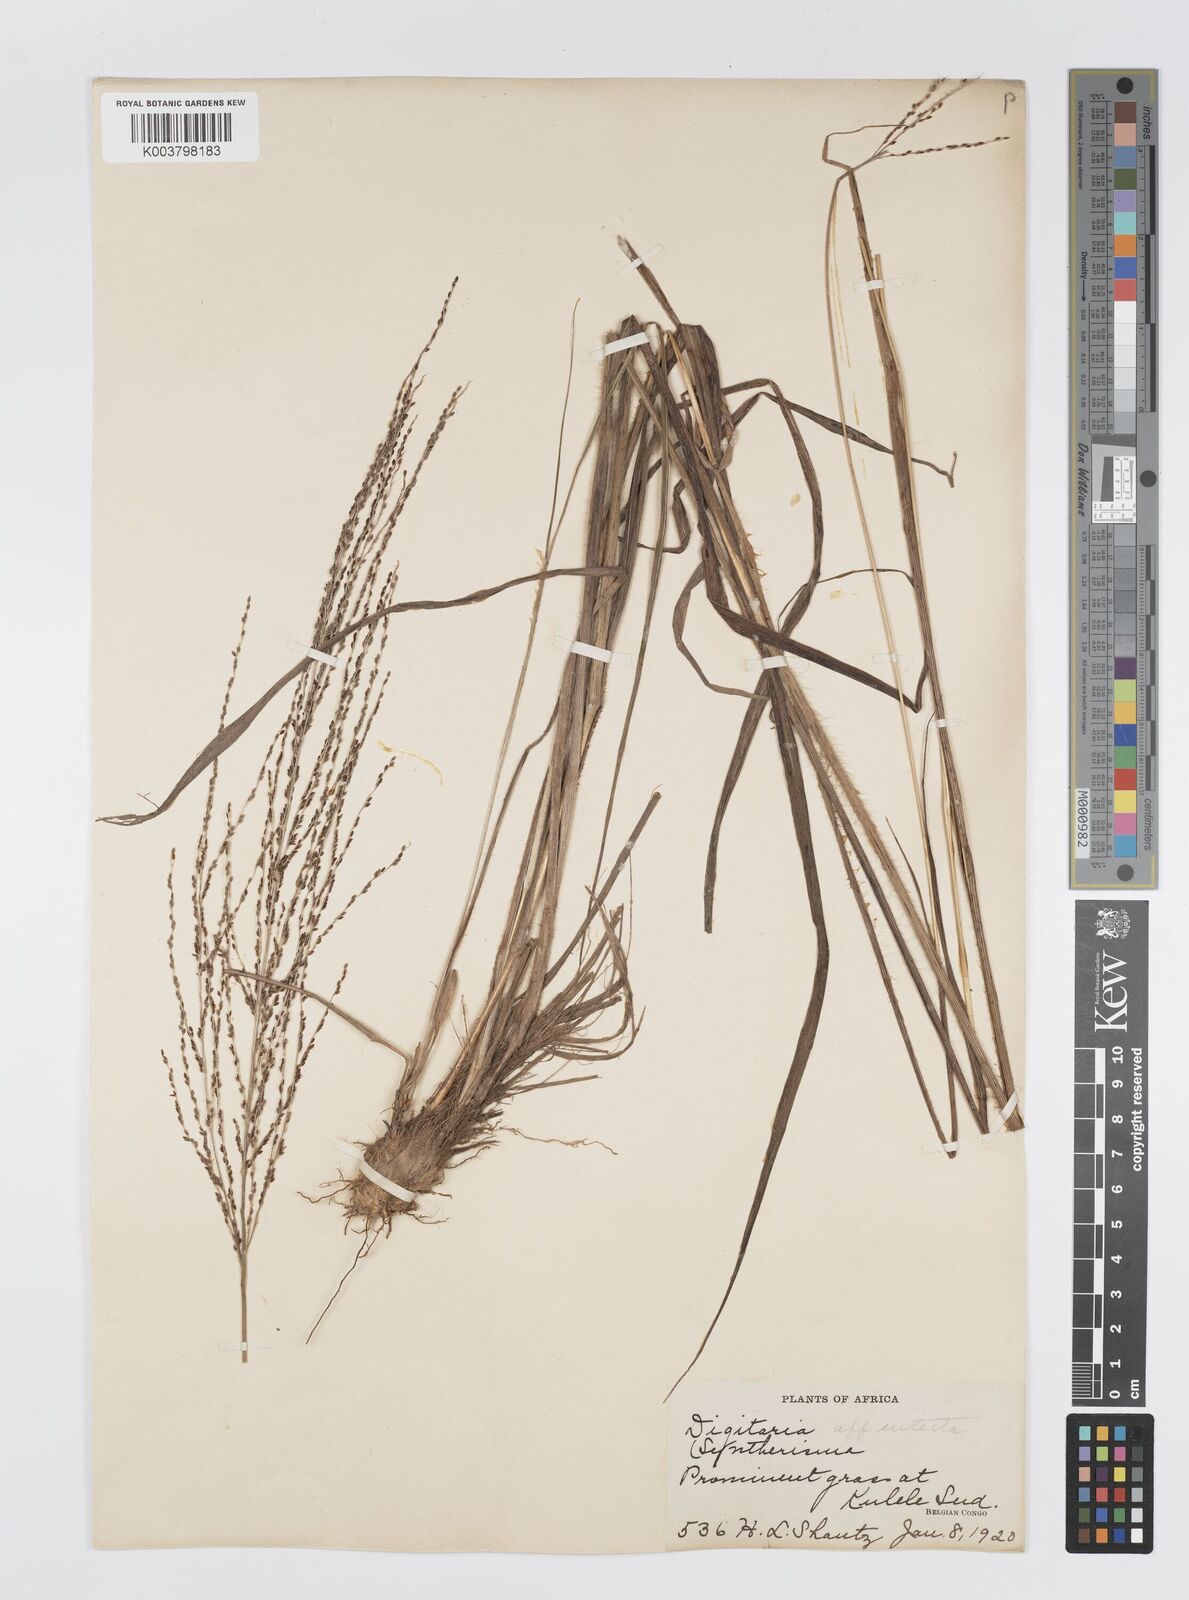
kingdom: Plantae
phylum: Tracheophyta
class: Liliopsida
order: Poales
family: Poaceae
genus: Digitaria
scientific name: Digitaria diagonalis
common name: Brown-seed finger grass
